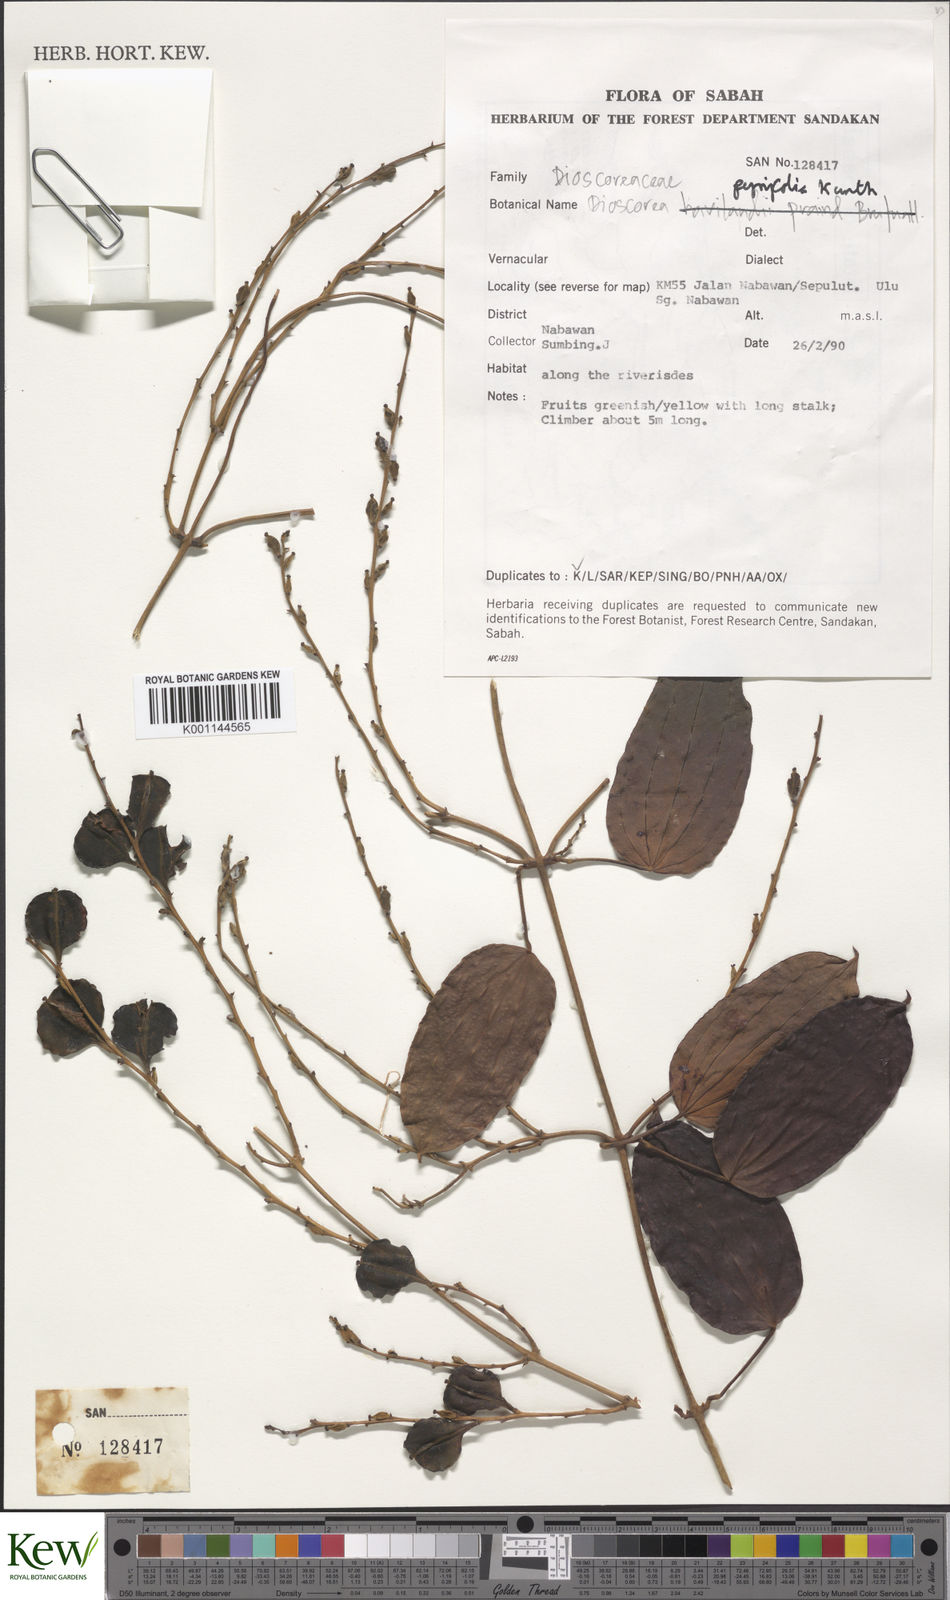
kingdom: Plantae
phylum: Tracheophyta
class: Liliopsida
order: Dioscoreales
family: Dioscoreaceae
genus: Dioscorea
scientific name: Dioscorea pyrifolia
